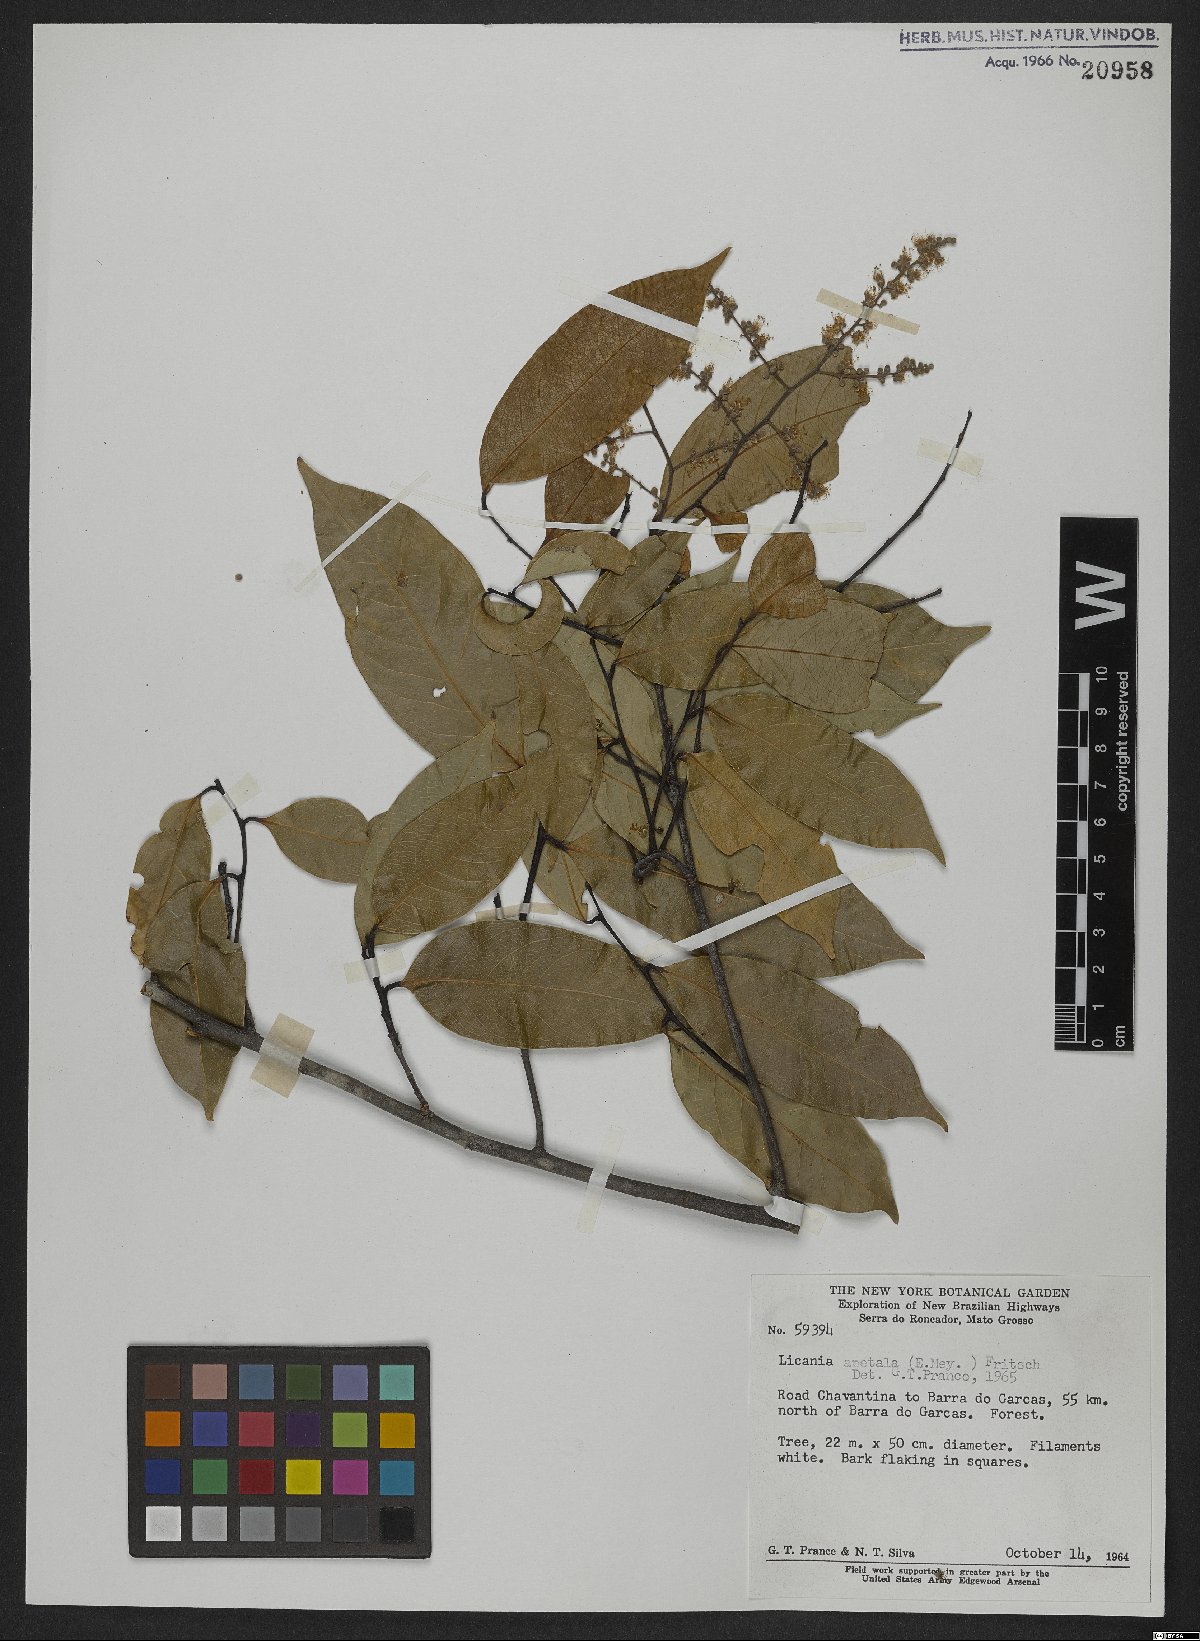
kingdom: Plantae
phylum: Tracheophyta
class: Magnoliopsida
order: Malpighiales
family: Chrysobalanaceae
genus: Leptobalanus
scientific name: Leptobalanus apetalus
